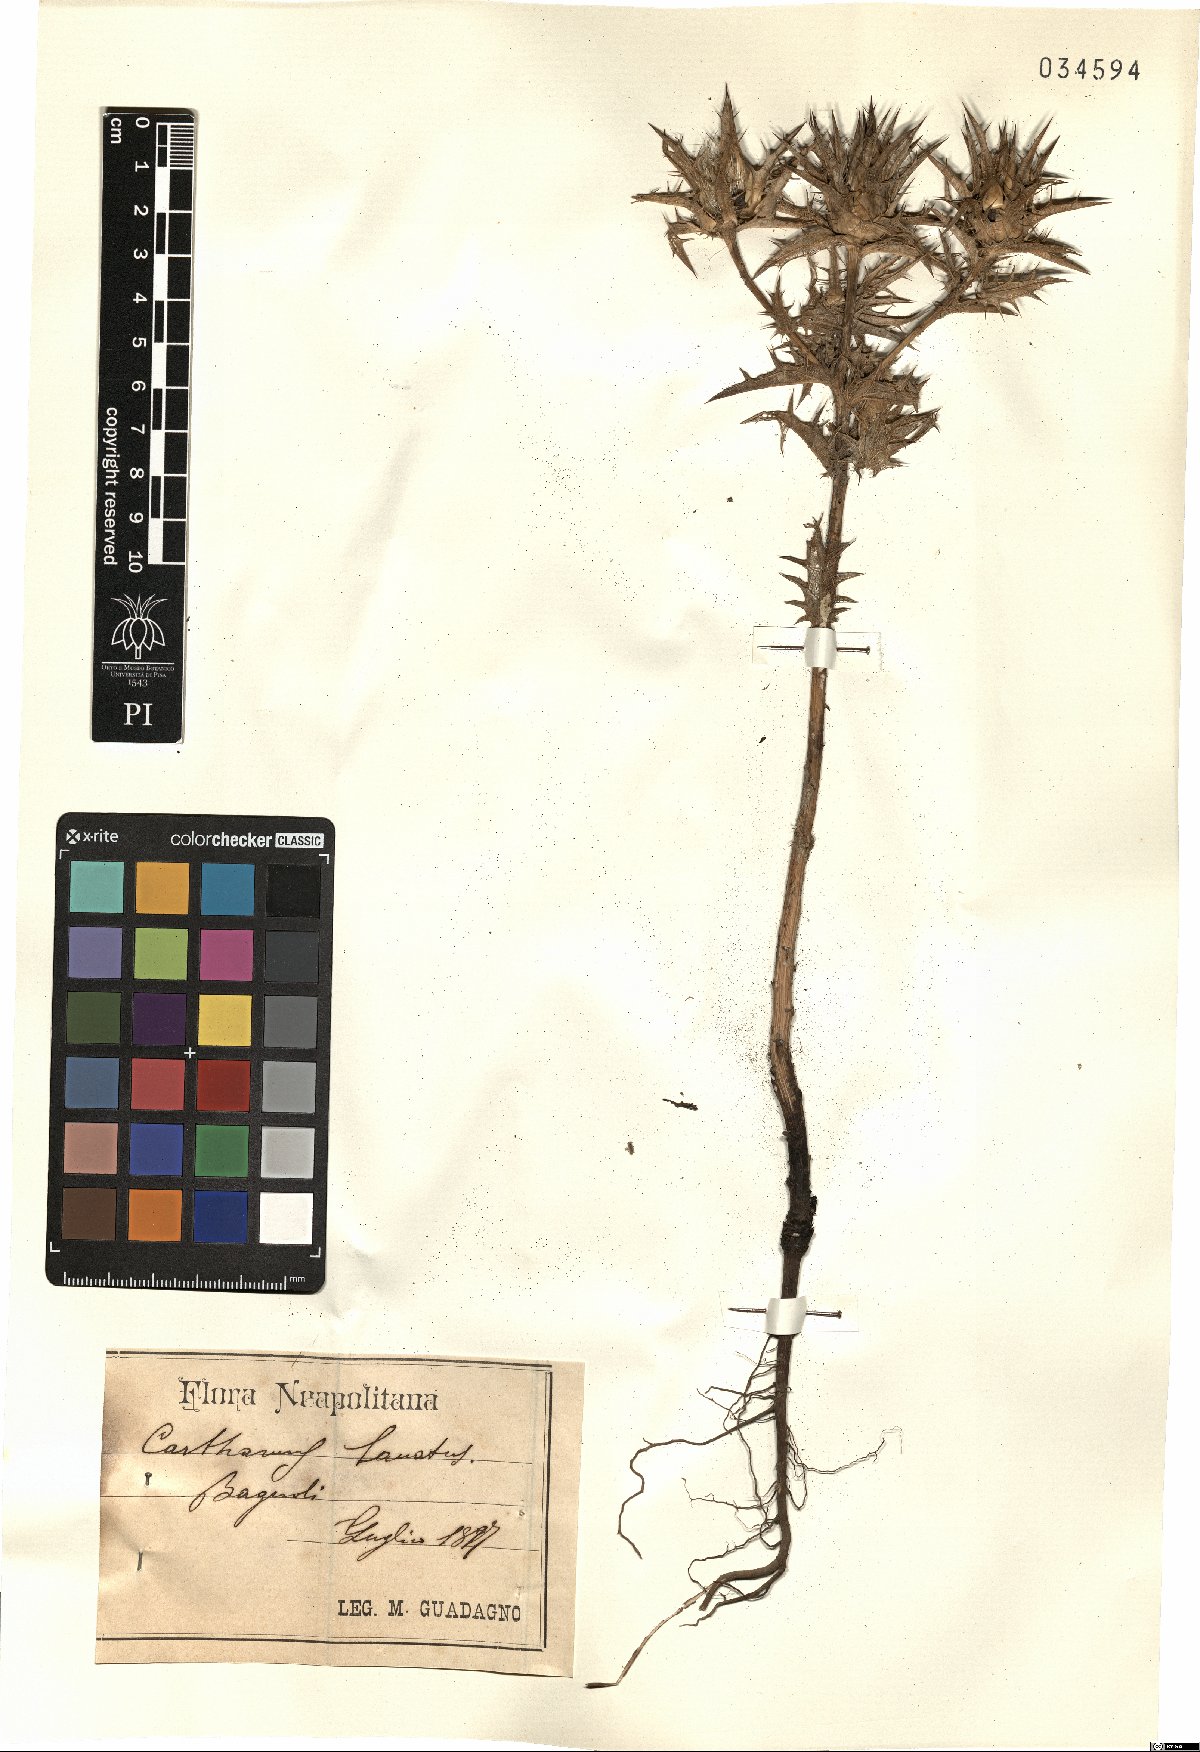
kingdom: Plantae
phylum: Tracheophyta
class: Magnoliopsida
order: Asterales
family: Asteraceae
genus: Carthamus
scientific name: Carthamus lanatus
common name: Downy safflower
